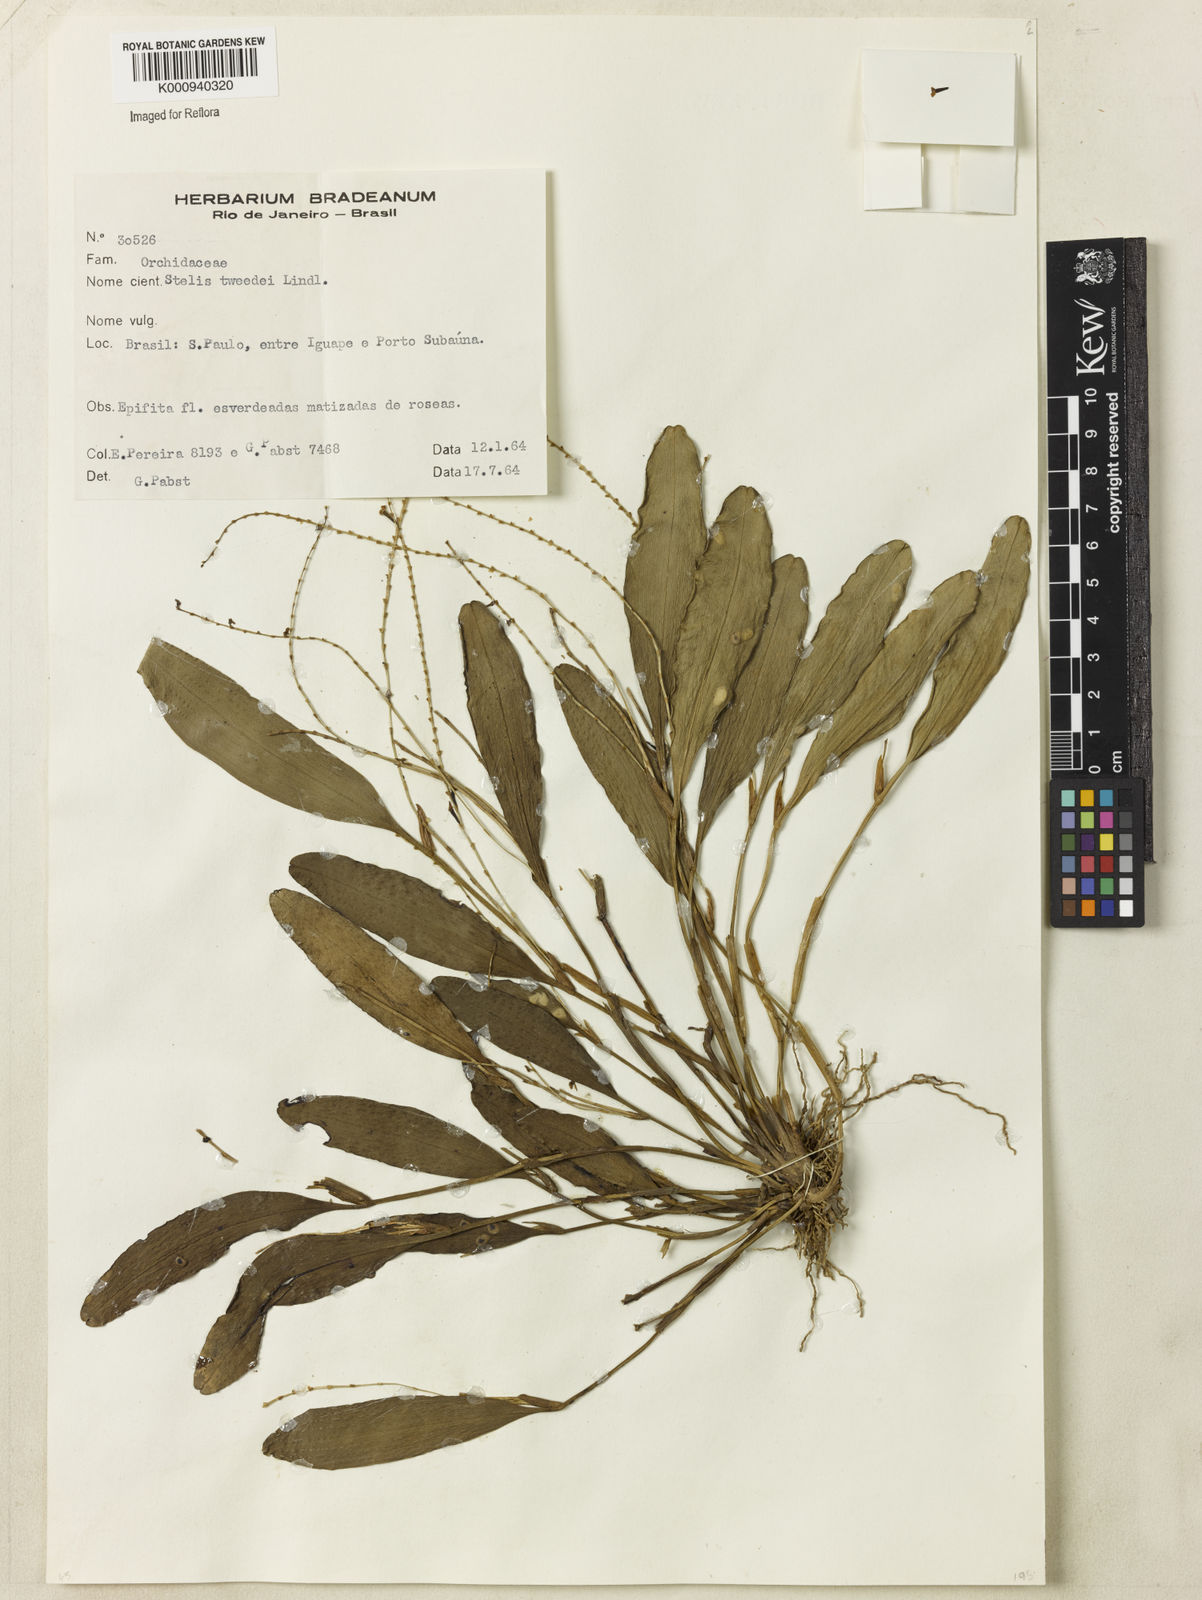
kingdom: Plantae
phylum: Tracheophyta
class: Liliopsida
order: Asparagales
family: Orchidaceae
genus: Stelis
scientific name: Stelis papaquerensis
